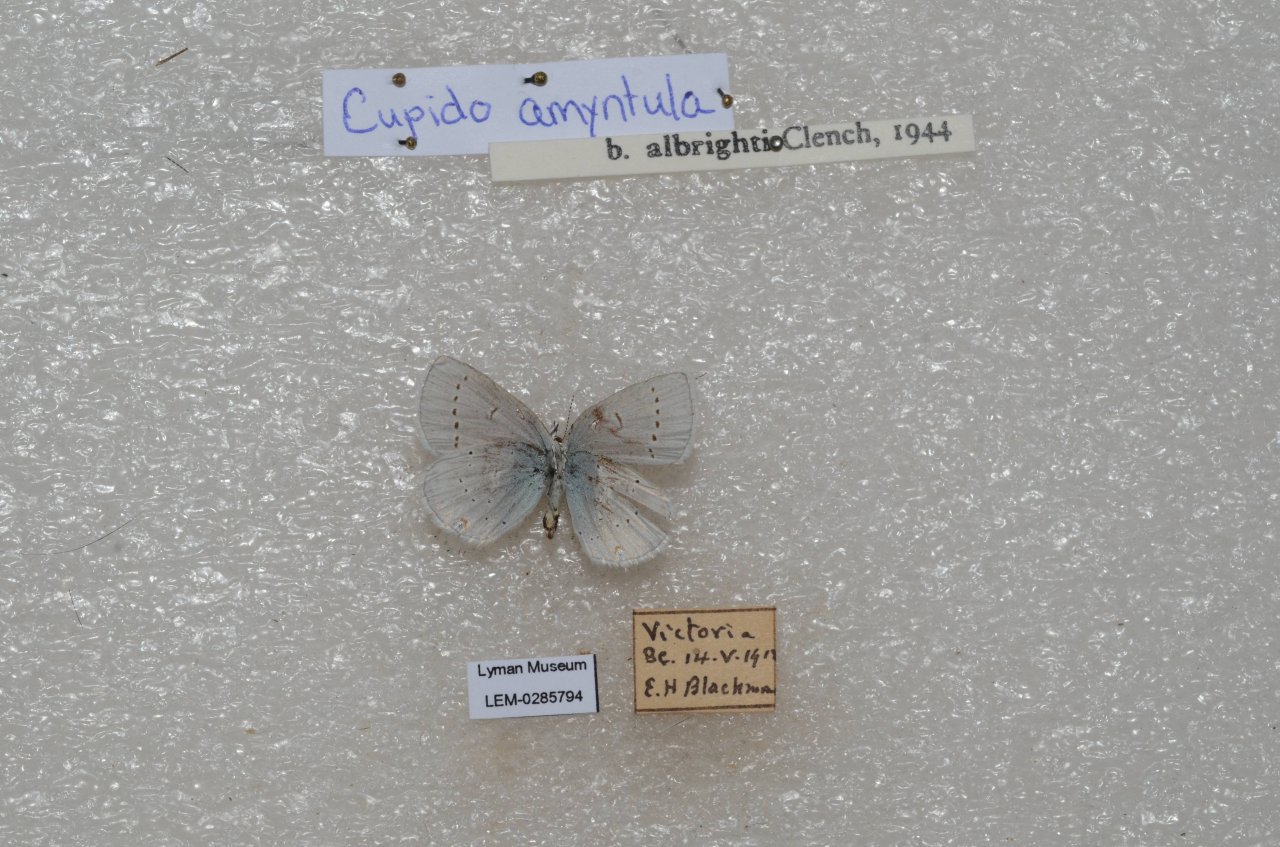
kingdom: Animalia
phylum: Arthropoda
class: Insecta
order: Lepidoptera
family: Lycaenidae
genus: Elkalyce
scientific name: Elkalyce amyntula
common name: Western Tailed-Blue
